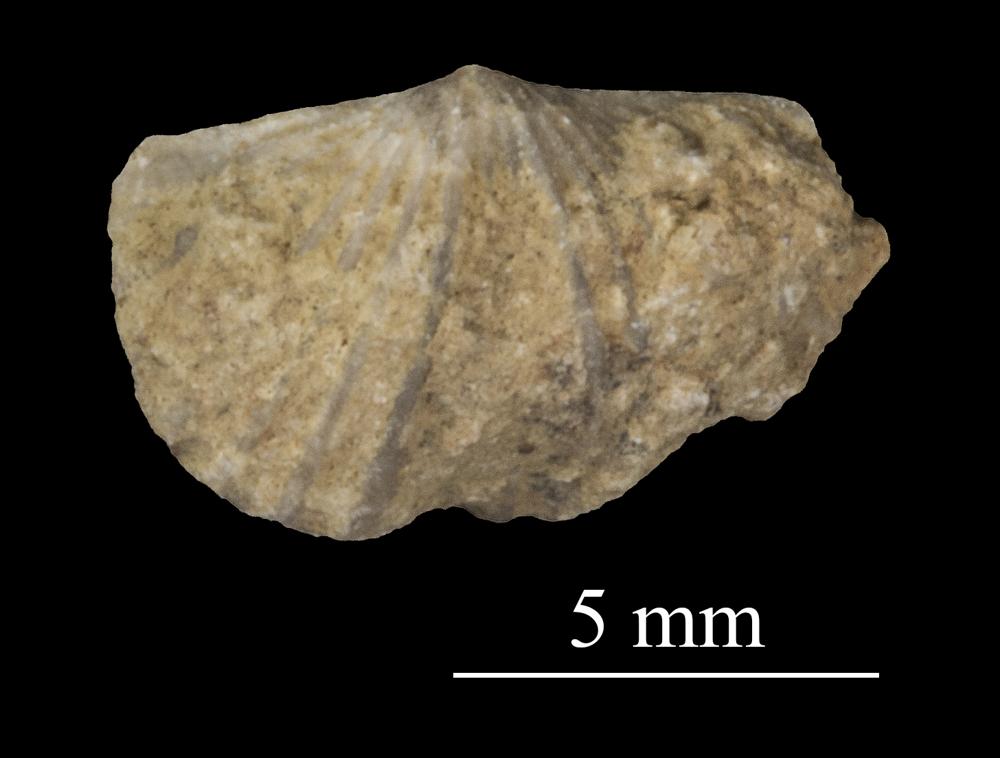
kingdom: Animalia
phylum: Brachiopoda
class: Rhynchonellata
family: Plectorthidae
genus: Platystrophia
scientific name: Platystrophia dentata
